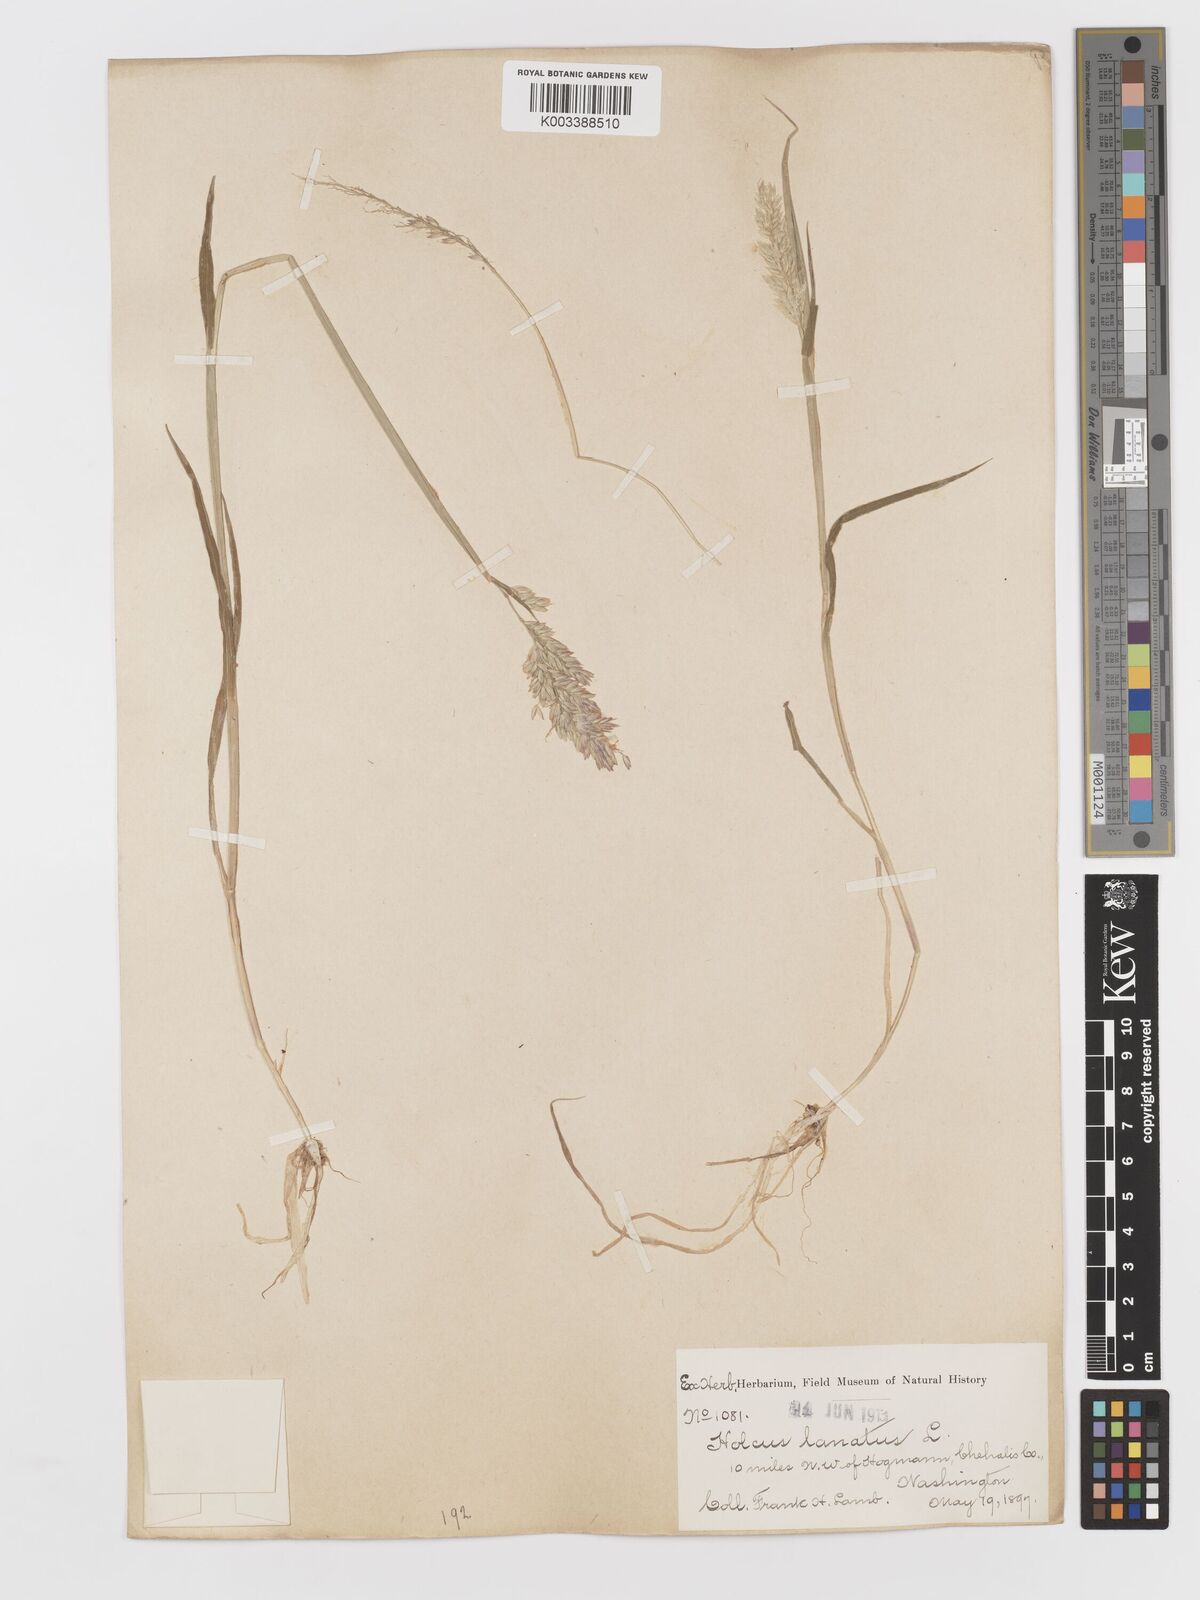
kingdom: Plantae
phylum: Tracheophyta
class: Liliopsida
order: Poales
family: Poaceae
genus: Holcus
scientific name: Holcus lanatus
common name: Yorkshire-fog
